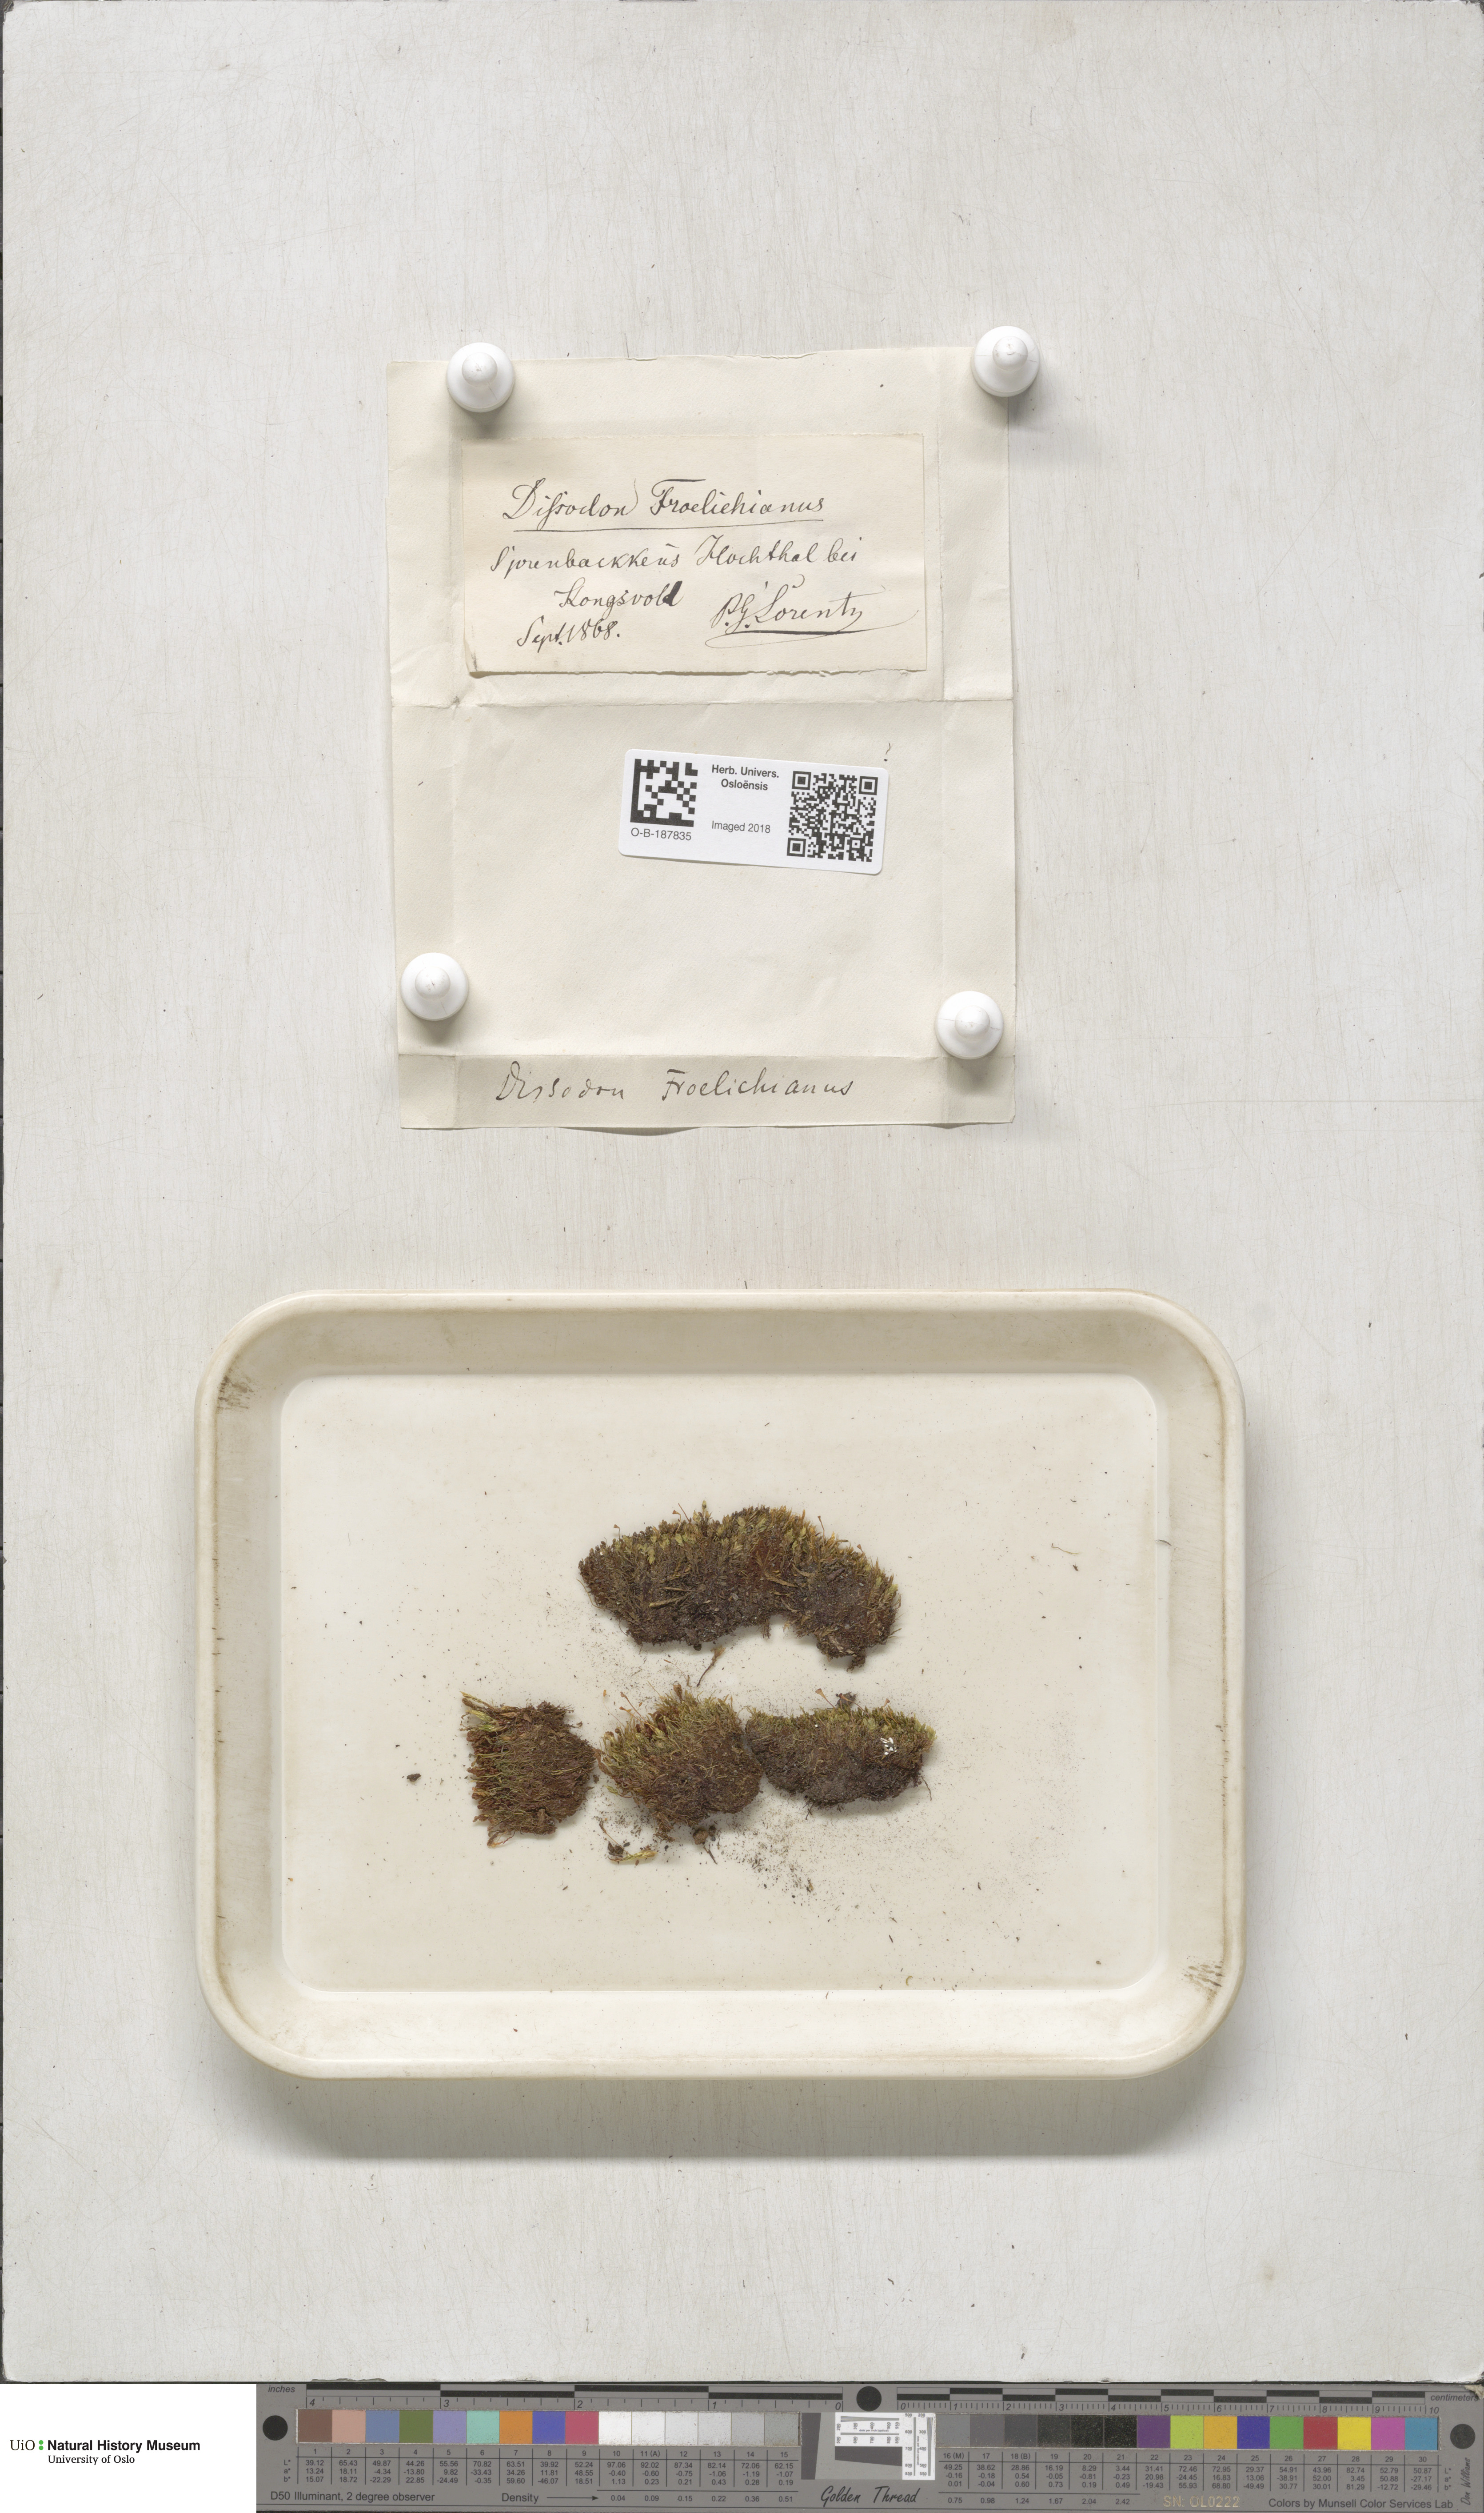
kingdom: Plantae
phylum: Bryophyta
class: Bryopsida
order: Splachnales
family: Splachnaceae
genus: Tayloria
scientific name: Tayloria froelichiana
